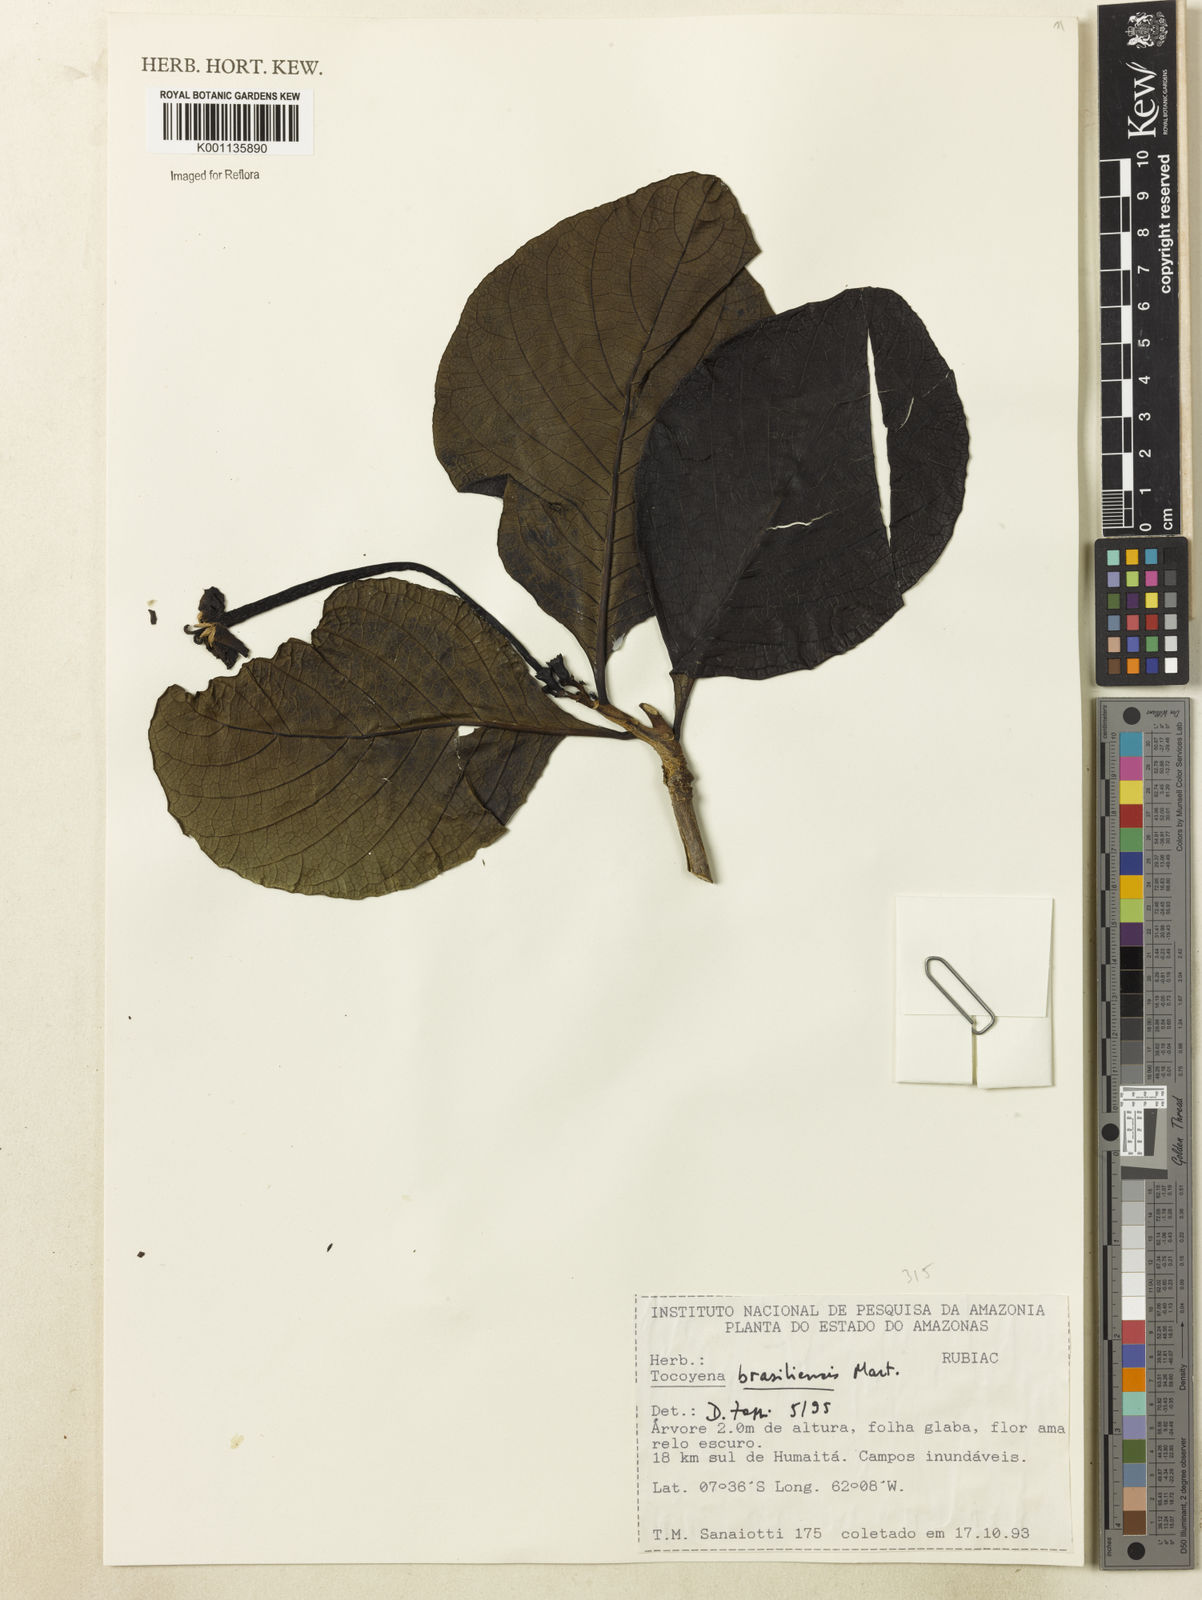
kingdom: Plantae
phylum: Tracheophyta
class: Magnoliopsida
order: Gentianales
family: Rubiaceae
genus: Tocoyena
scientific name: Tocoyena sprucei
